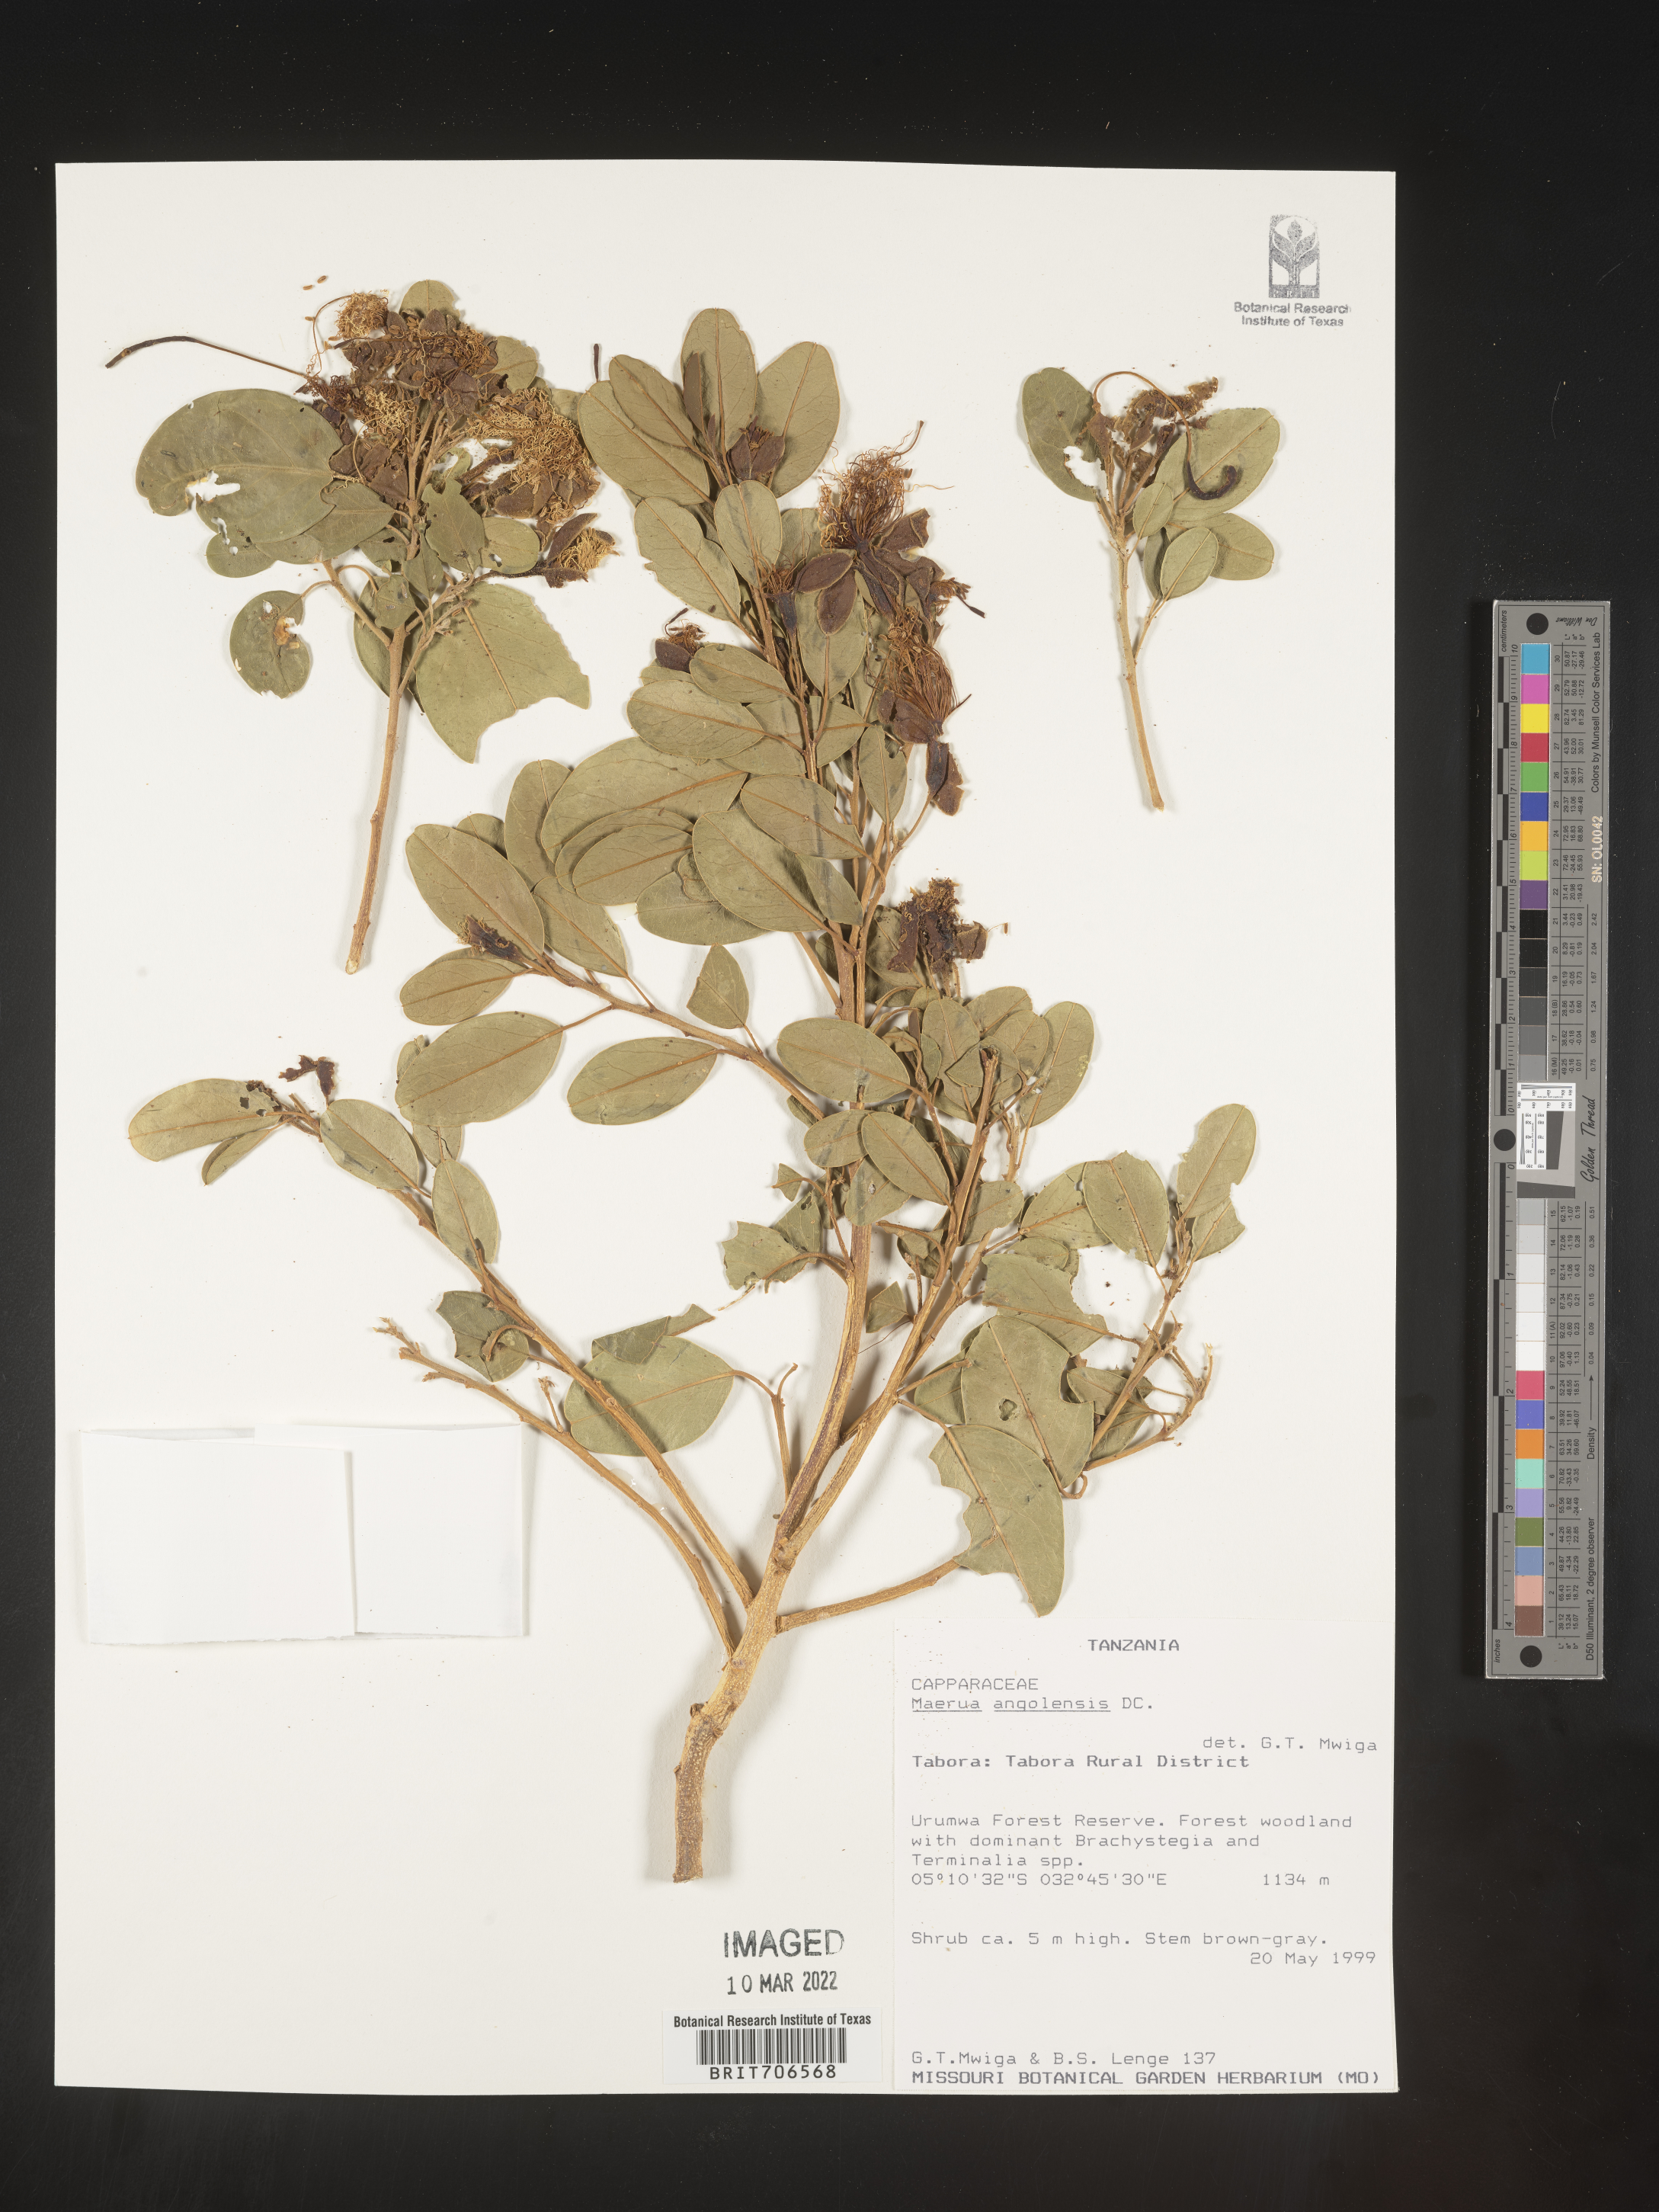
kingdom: Plantae
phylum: Tracheophyta
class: Magnoliopsida
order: Brassicales
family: Capparaceae
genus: Maerua
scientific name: Maerua
